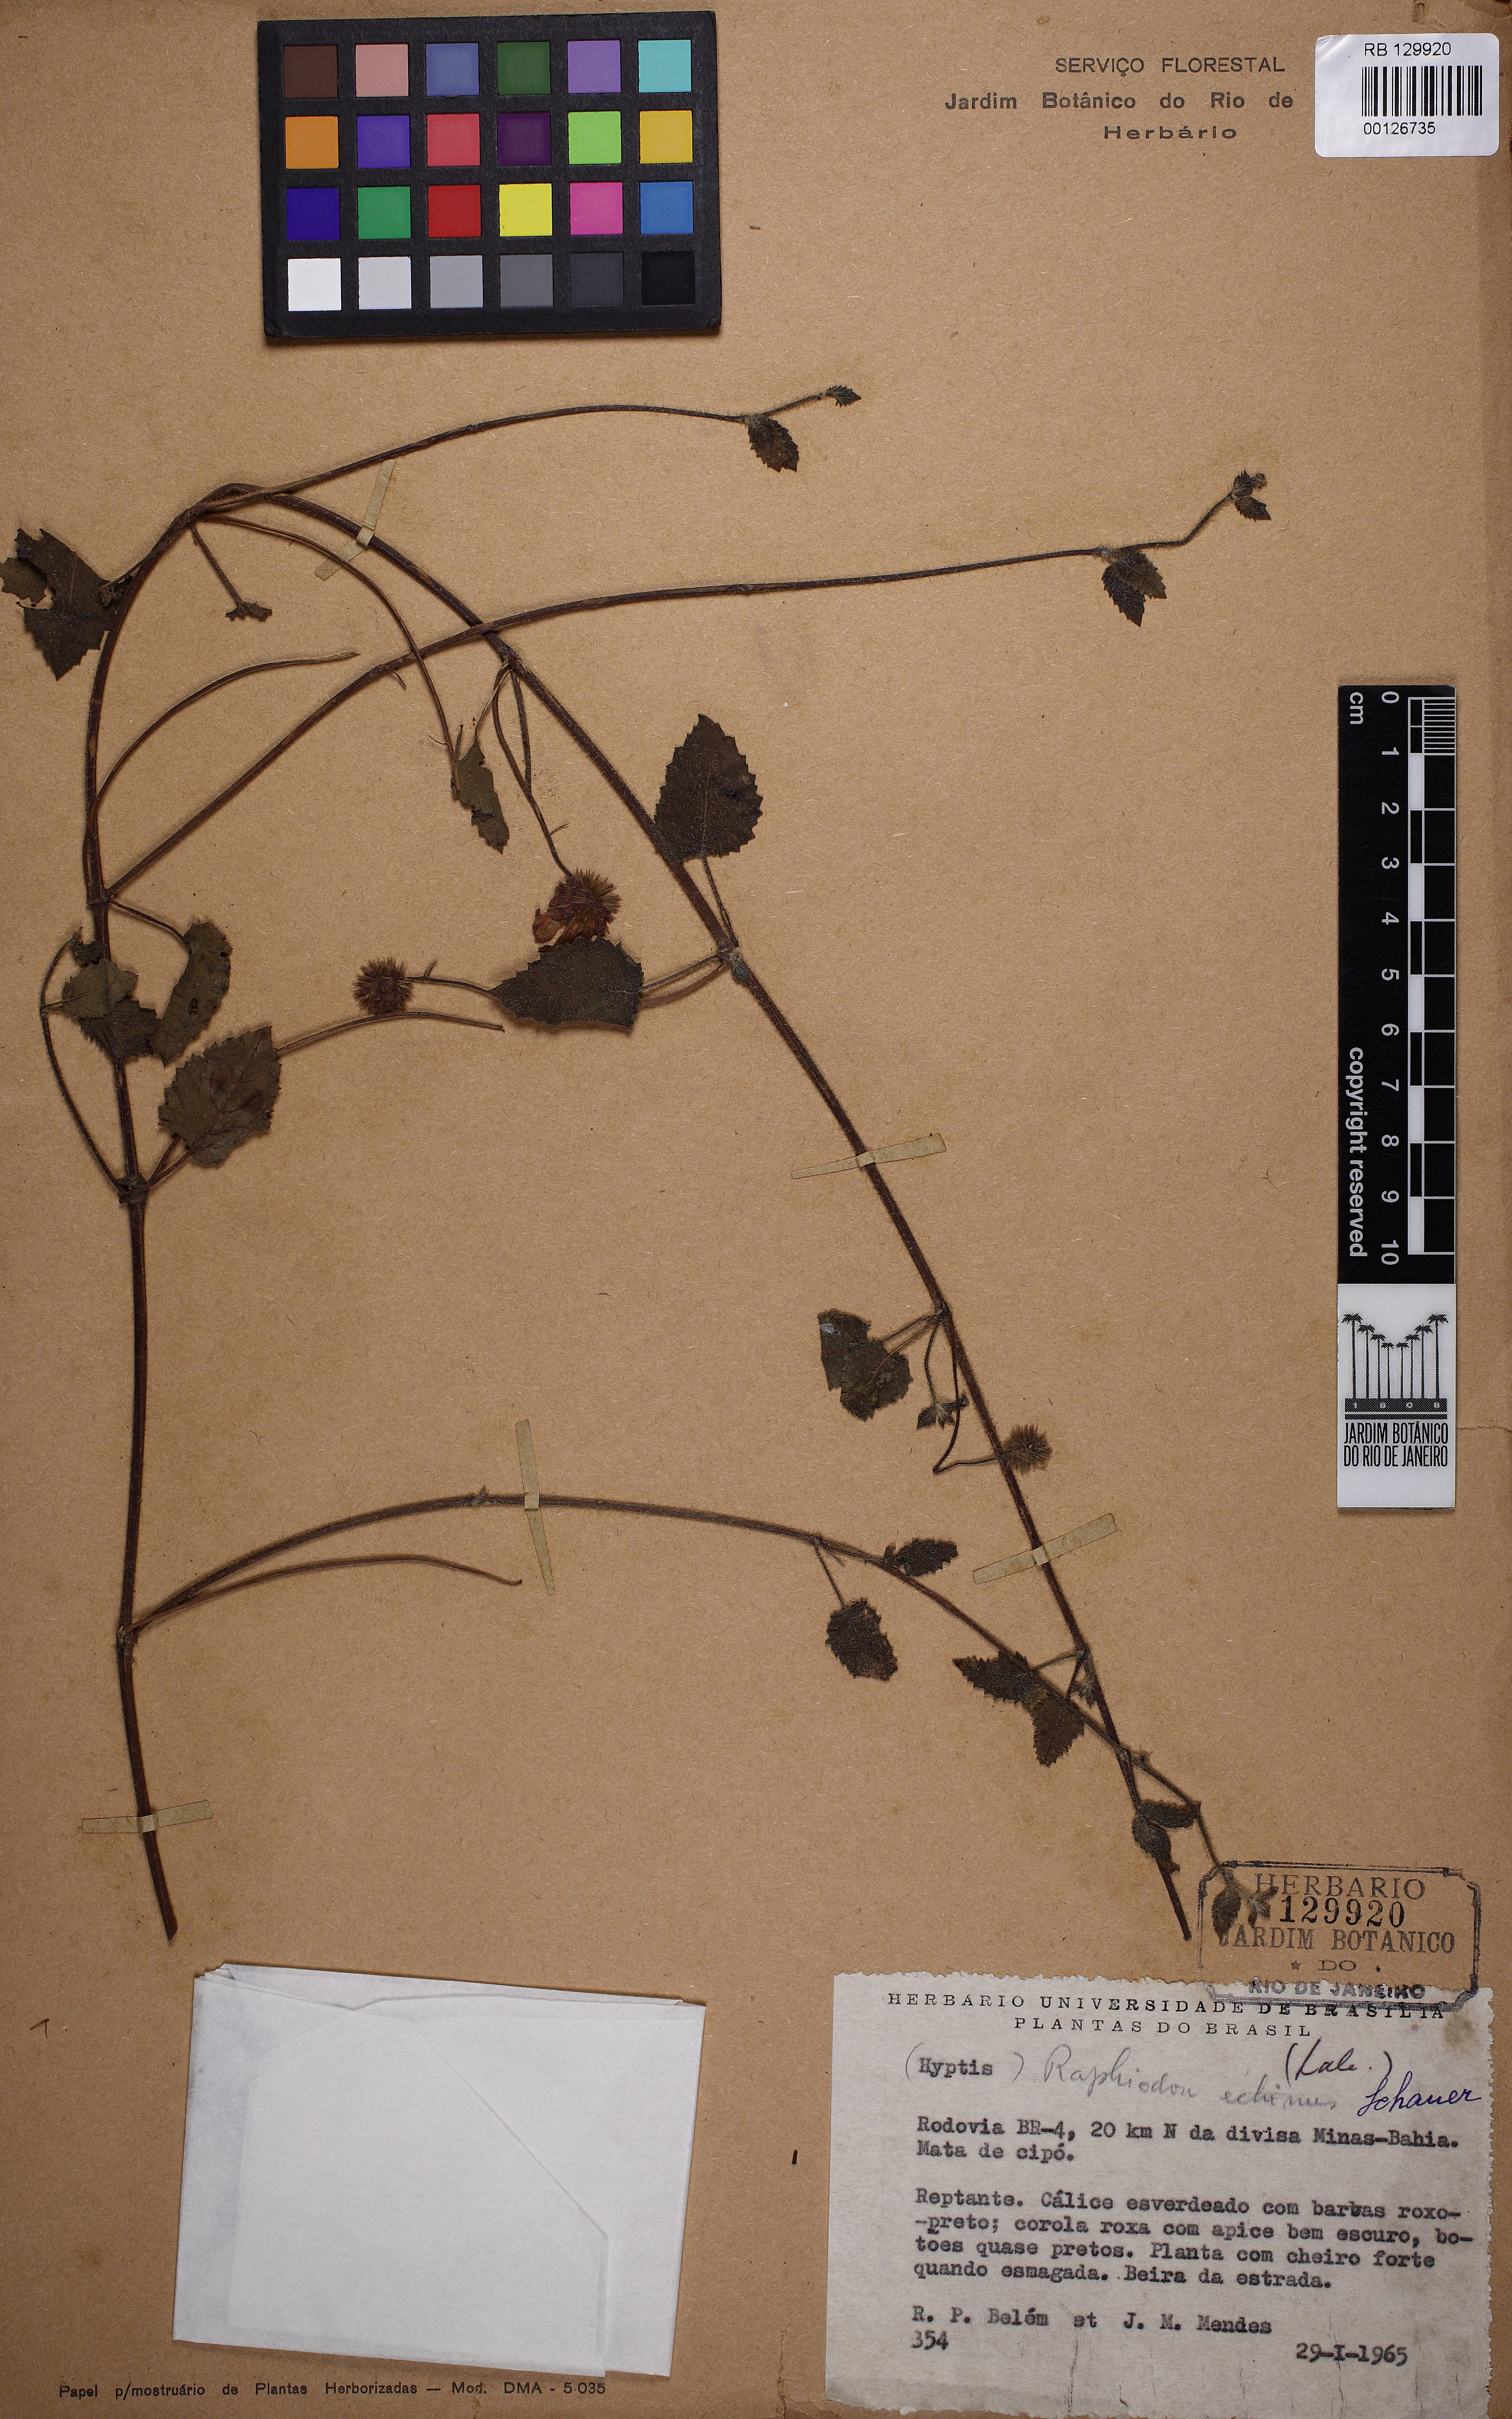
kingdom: Plantae
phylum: Tracheophyta
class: Magnoliopsida
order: Lamiales
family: Lamiaceae
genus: Rhaphiodon
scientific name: Rhaphiodon echinus
